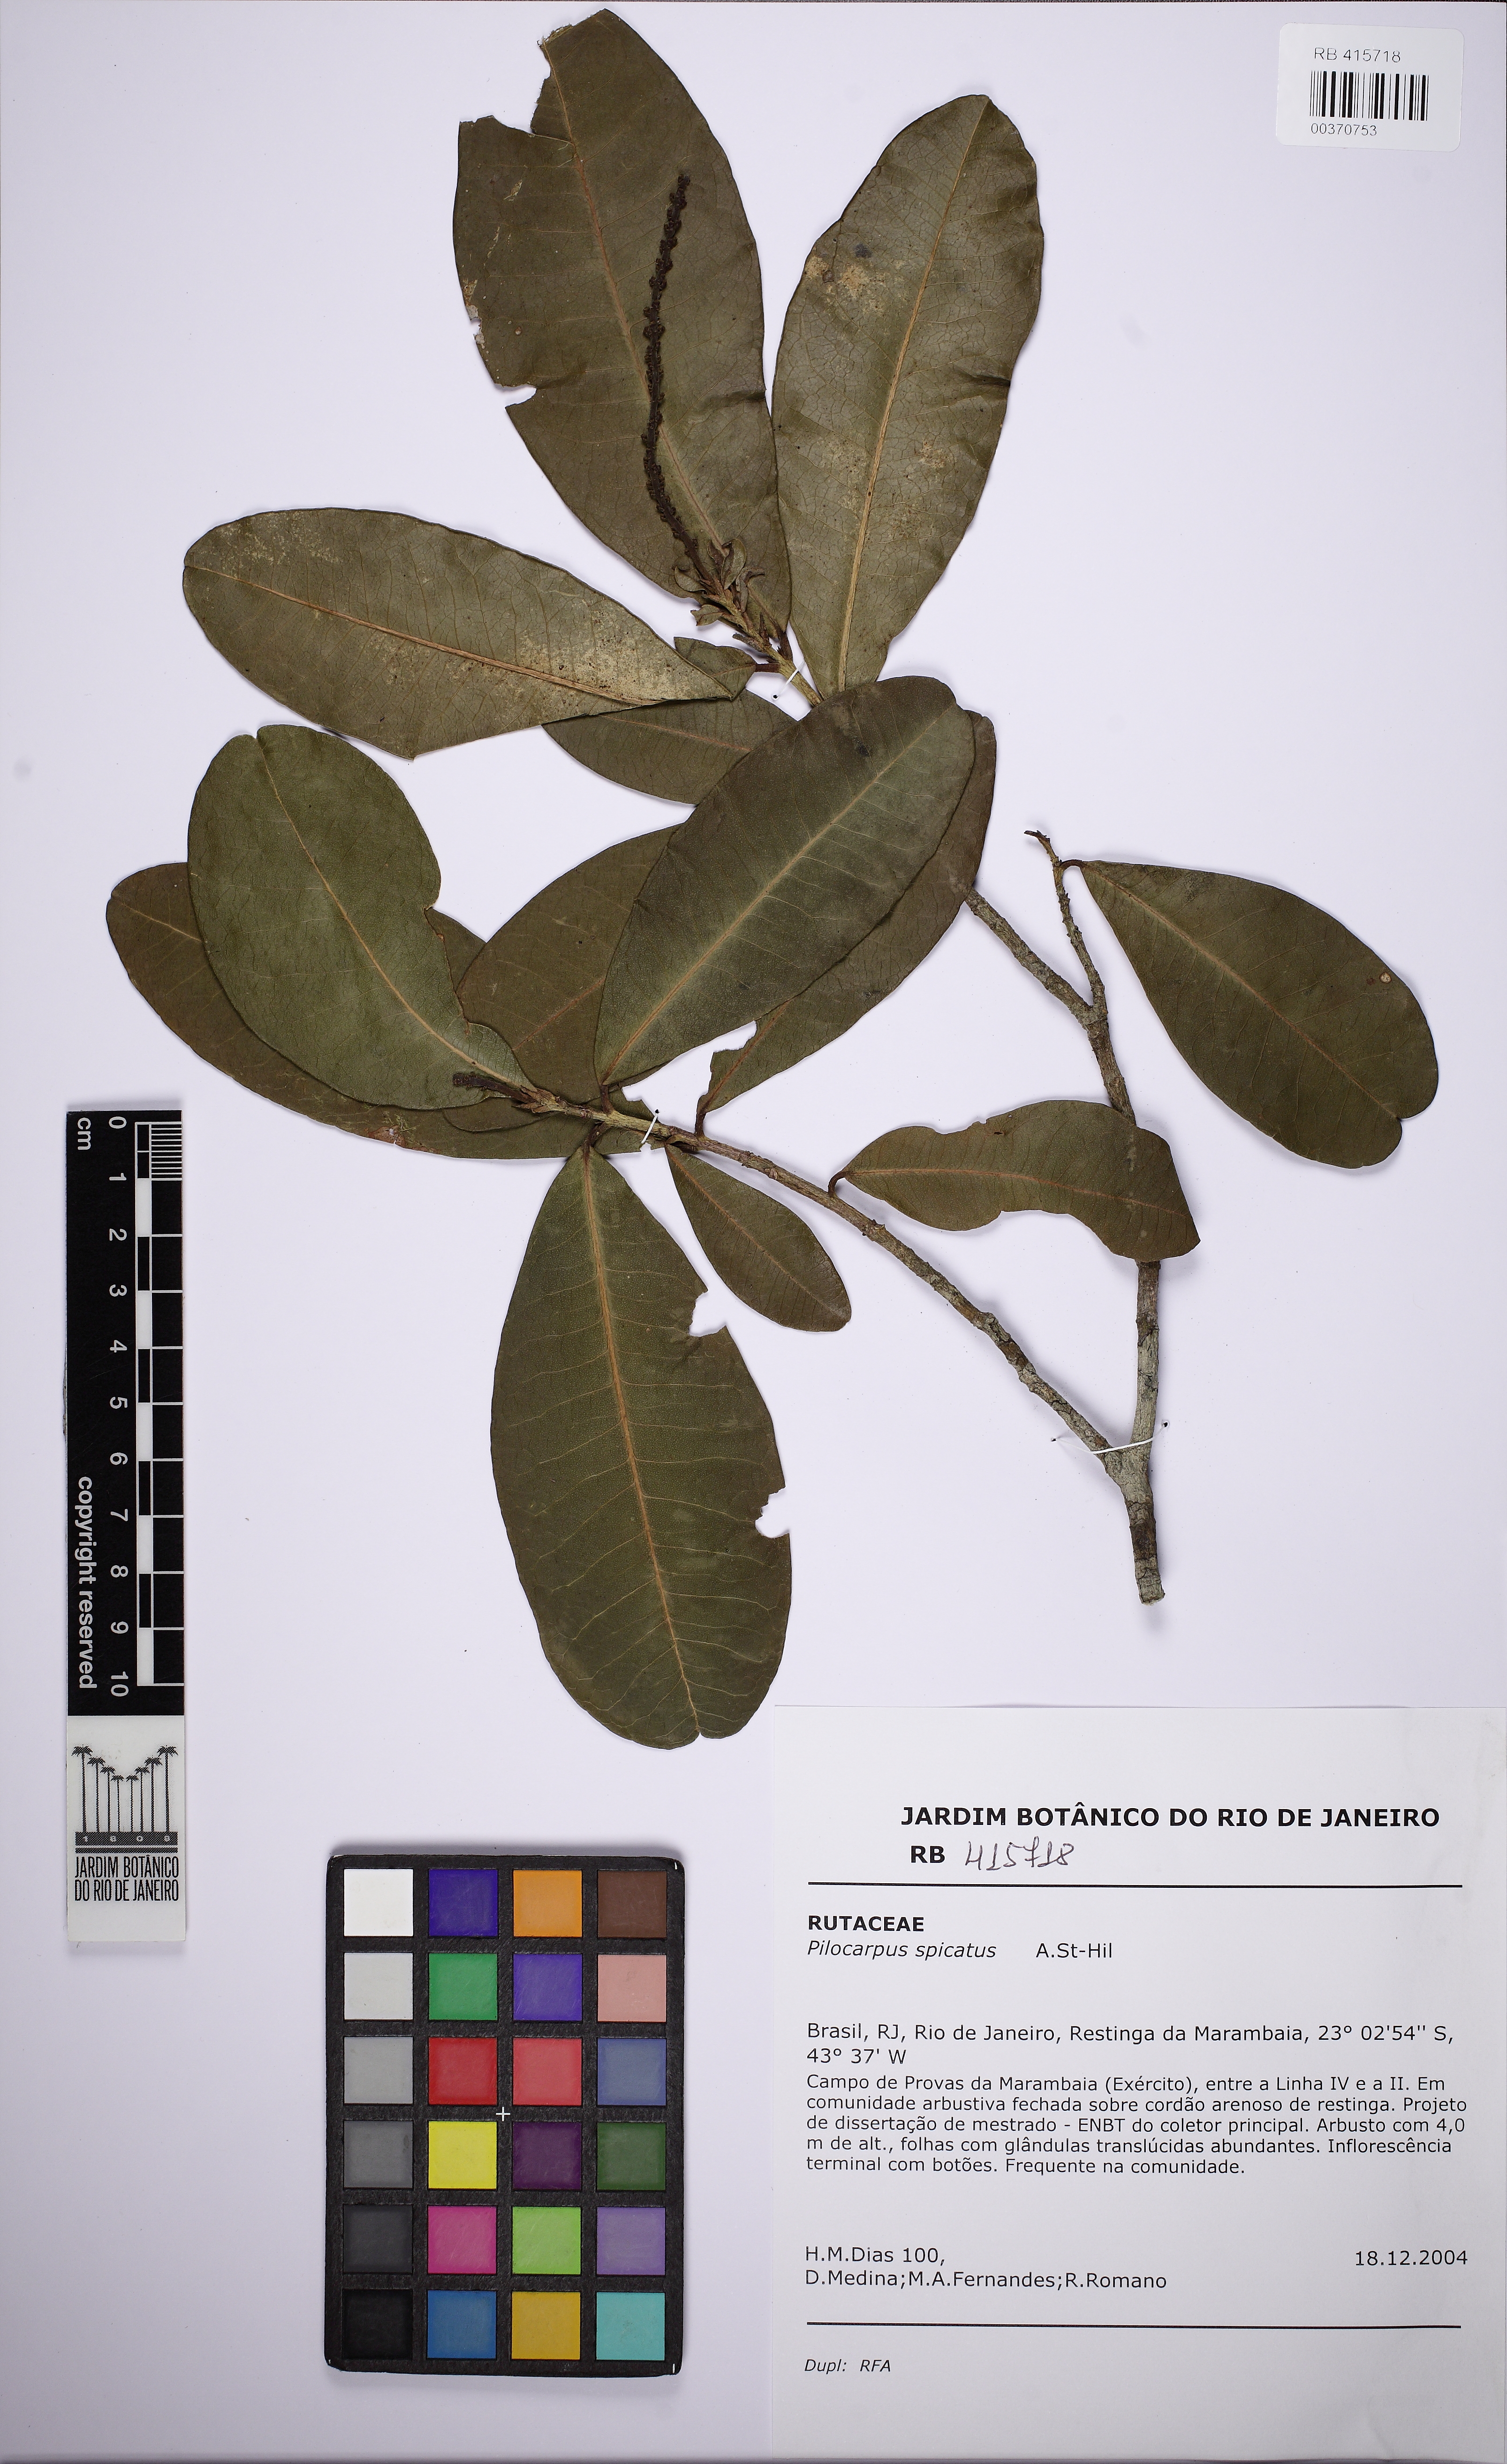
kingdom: Plantae
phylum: Tracheophyta
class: Magnoliopsida
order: Sapindales
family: Rutaceae
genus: Pilocarpus
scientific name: Pilocarpus spicatus
